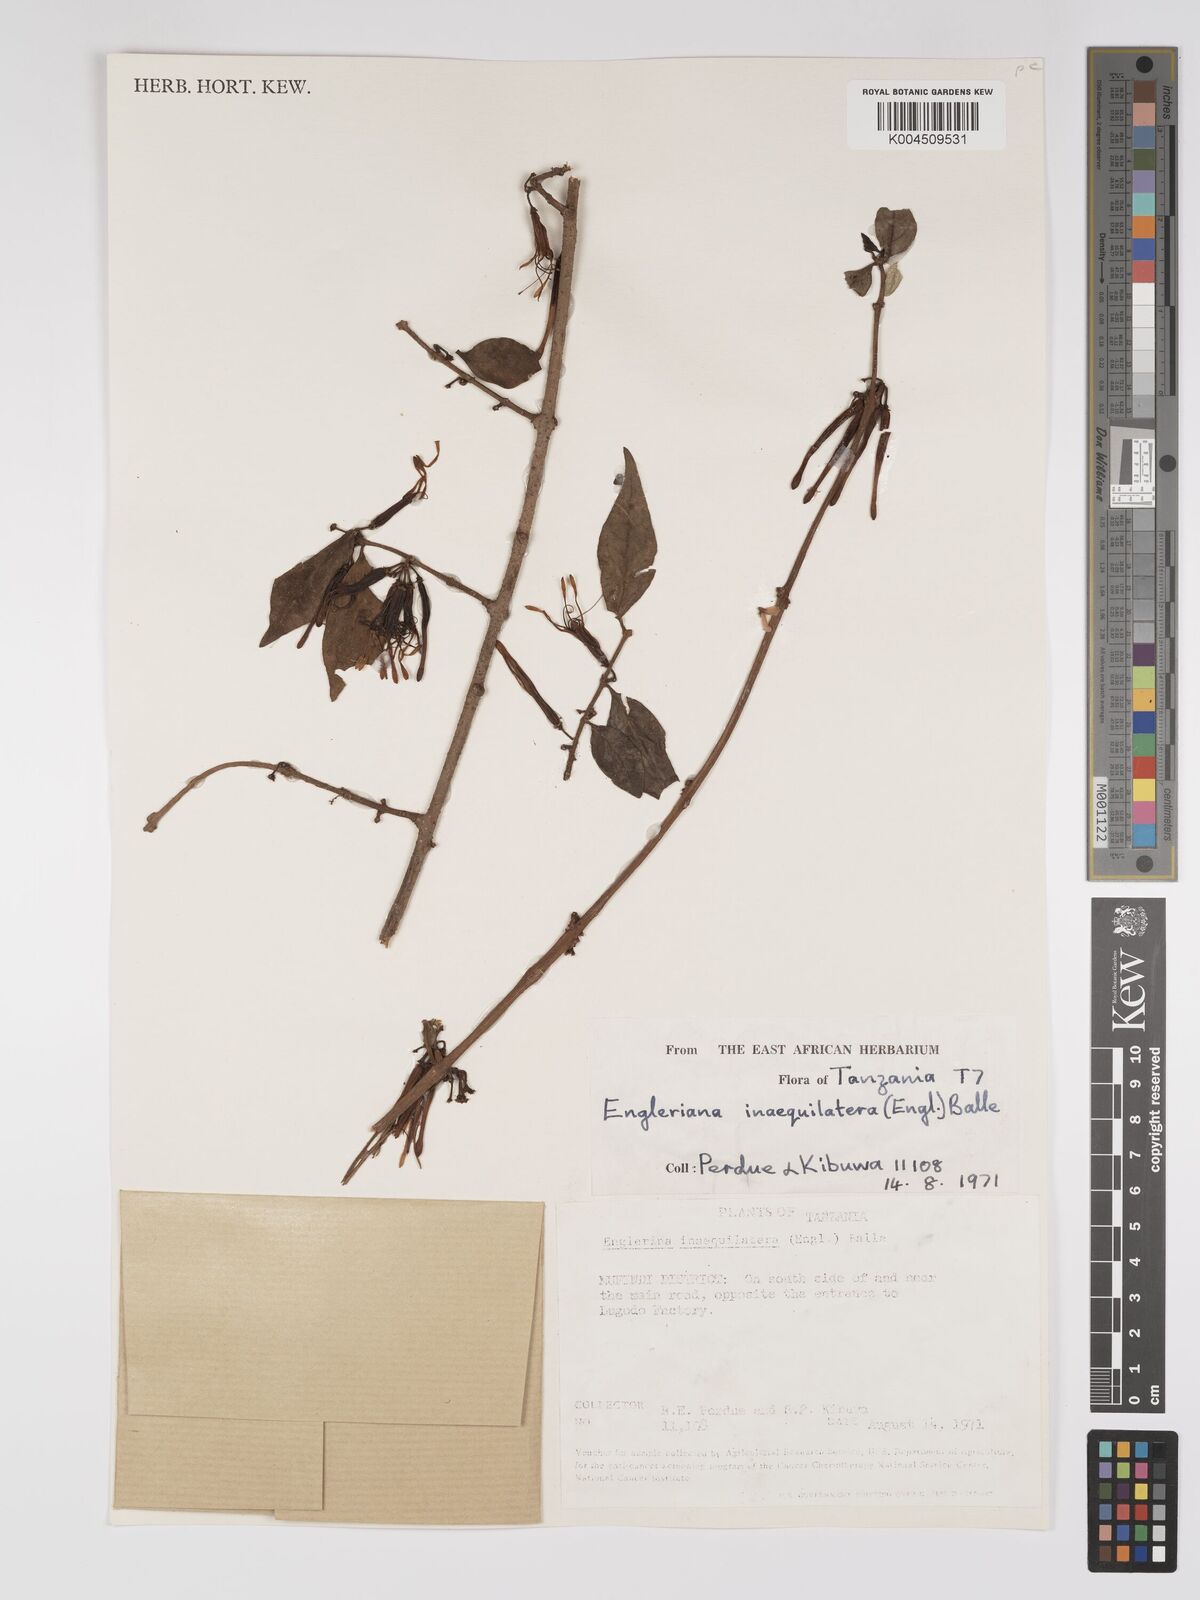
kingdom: Plantae
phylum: Tracheophyta
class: Magnoliopsida
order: Santalales
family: Loranthaceae
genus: Englerina
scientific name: Englerina inaequilatera
